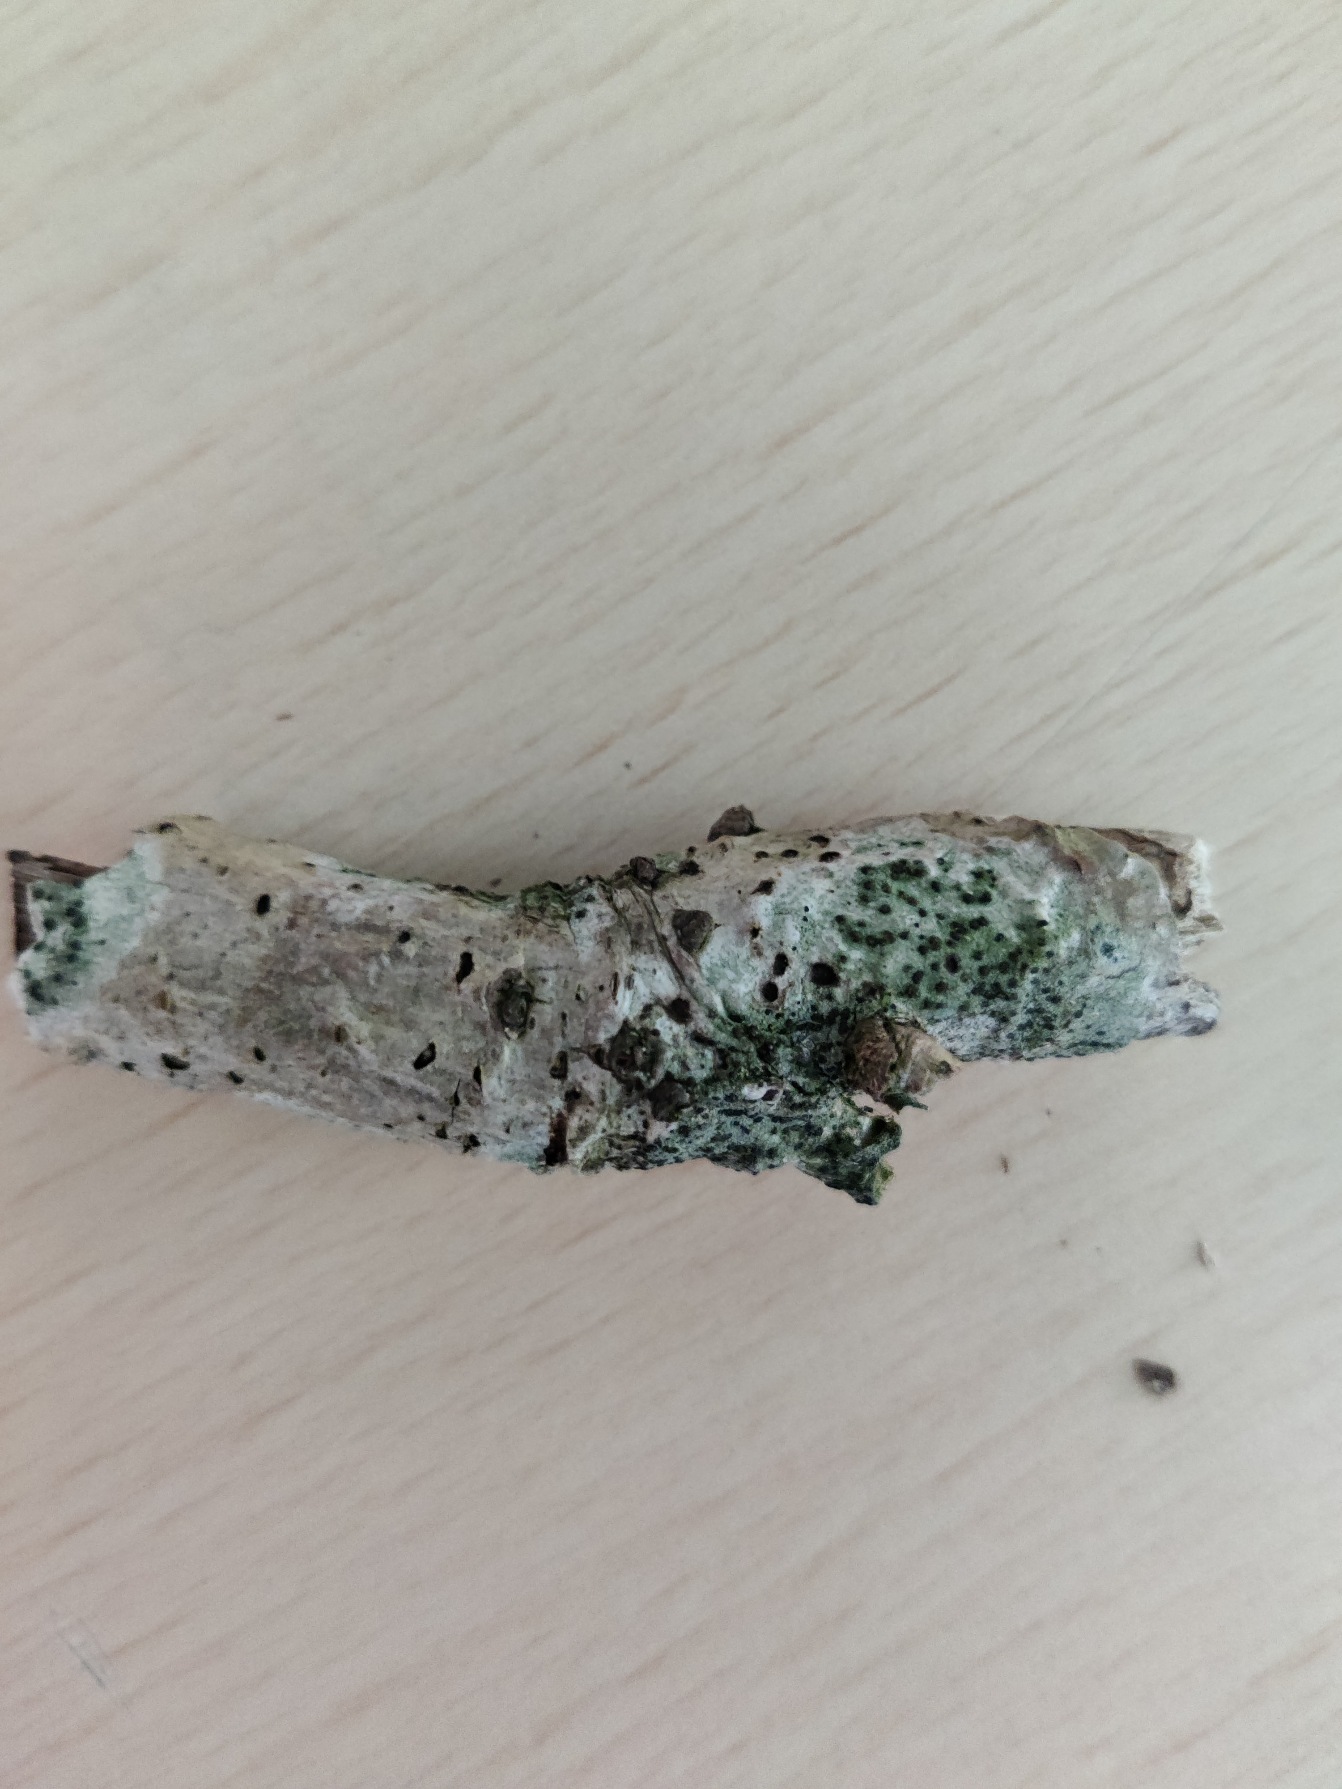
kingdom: Fungi
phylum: Ascomycota
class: Lecanoromycetes
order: Lecanorales
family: Lecanoraceae
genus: Lecidella
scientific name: Lecidella elaeochroma
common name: Grågrøn skivelav
